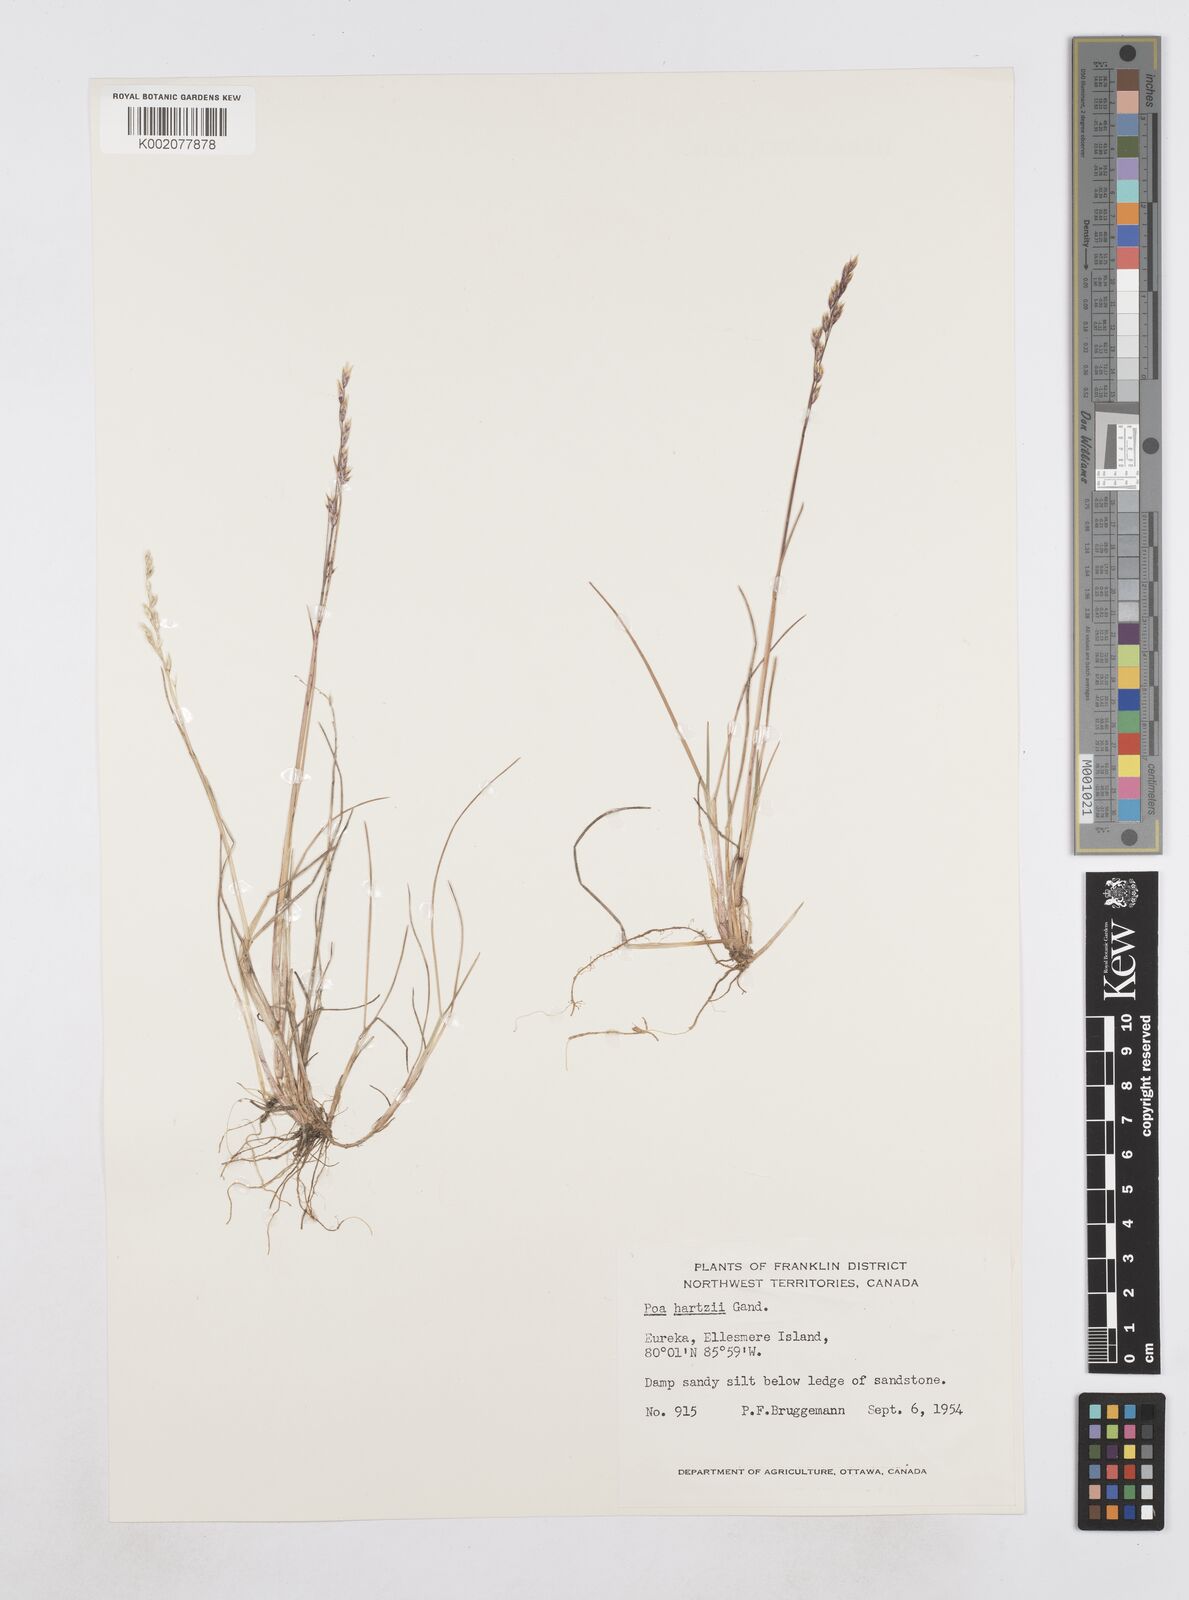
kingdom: Plantae
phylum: Tracheophyta
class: Liliopsida
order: Poales
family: Poaceae
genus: Poa
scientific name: Poa hartzii
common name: Hartz's bluegrass
